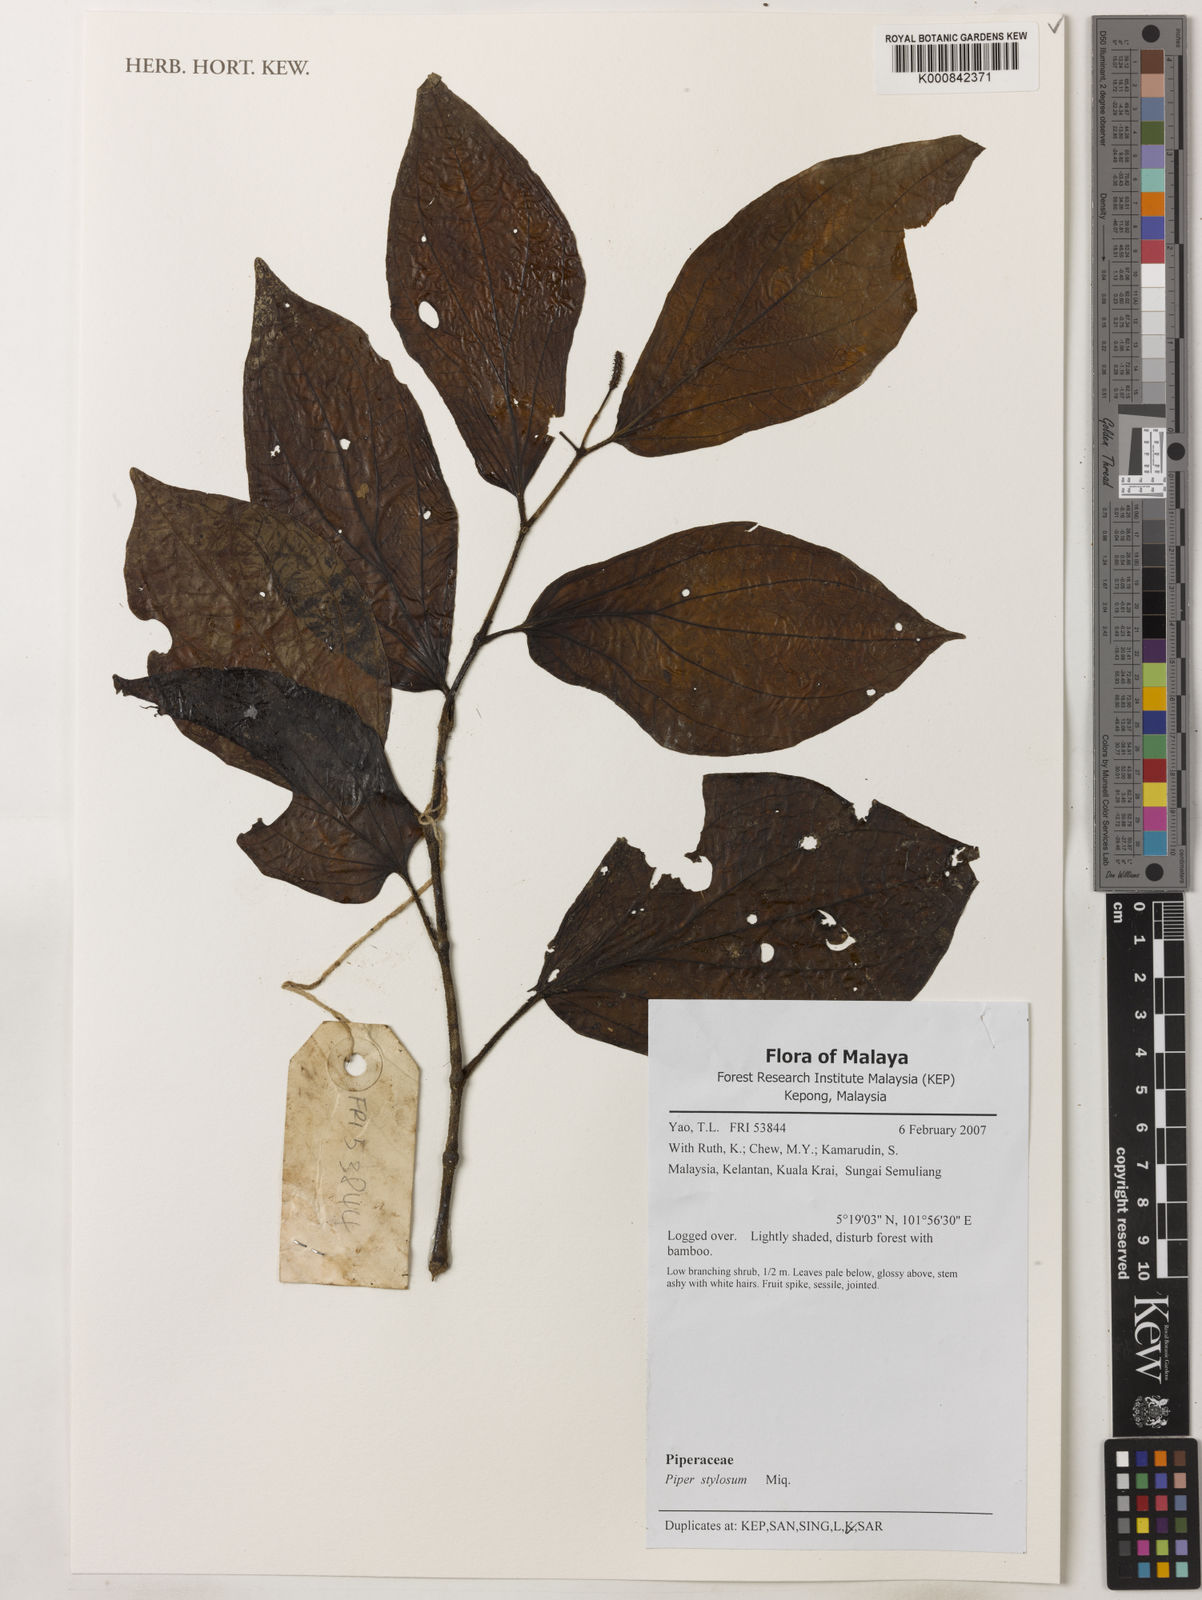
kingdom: Plantae
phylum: Tracheophyta
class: Magnoliopsida
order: Piperales
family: Piperaceae
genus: Piper
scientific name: Piper rostratum
